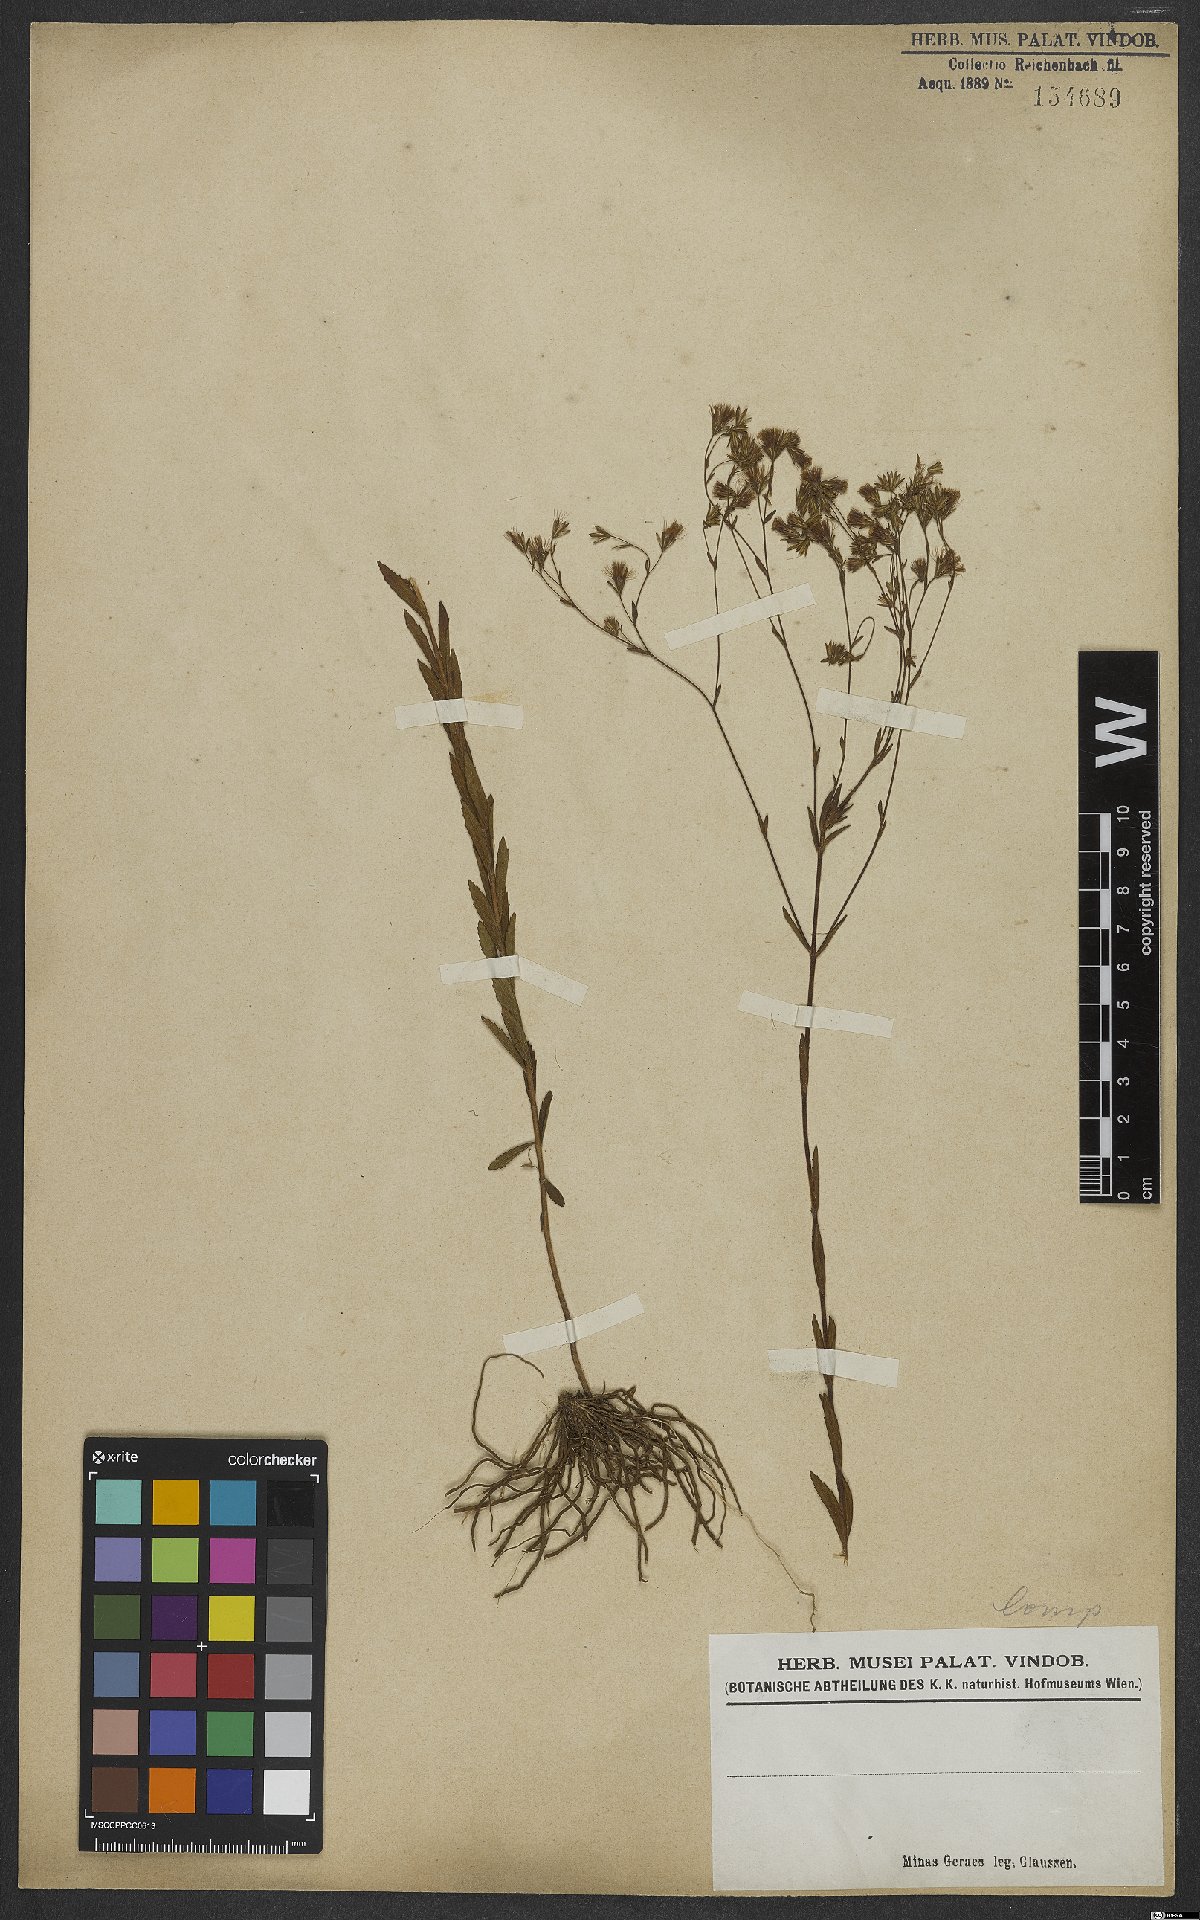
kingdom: Plantae
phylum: Tracheophyta
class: Magnoliopsida
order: Asterales
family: Asteraceae
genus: Porophyllum
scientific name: Porophyllum
